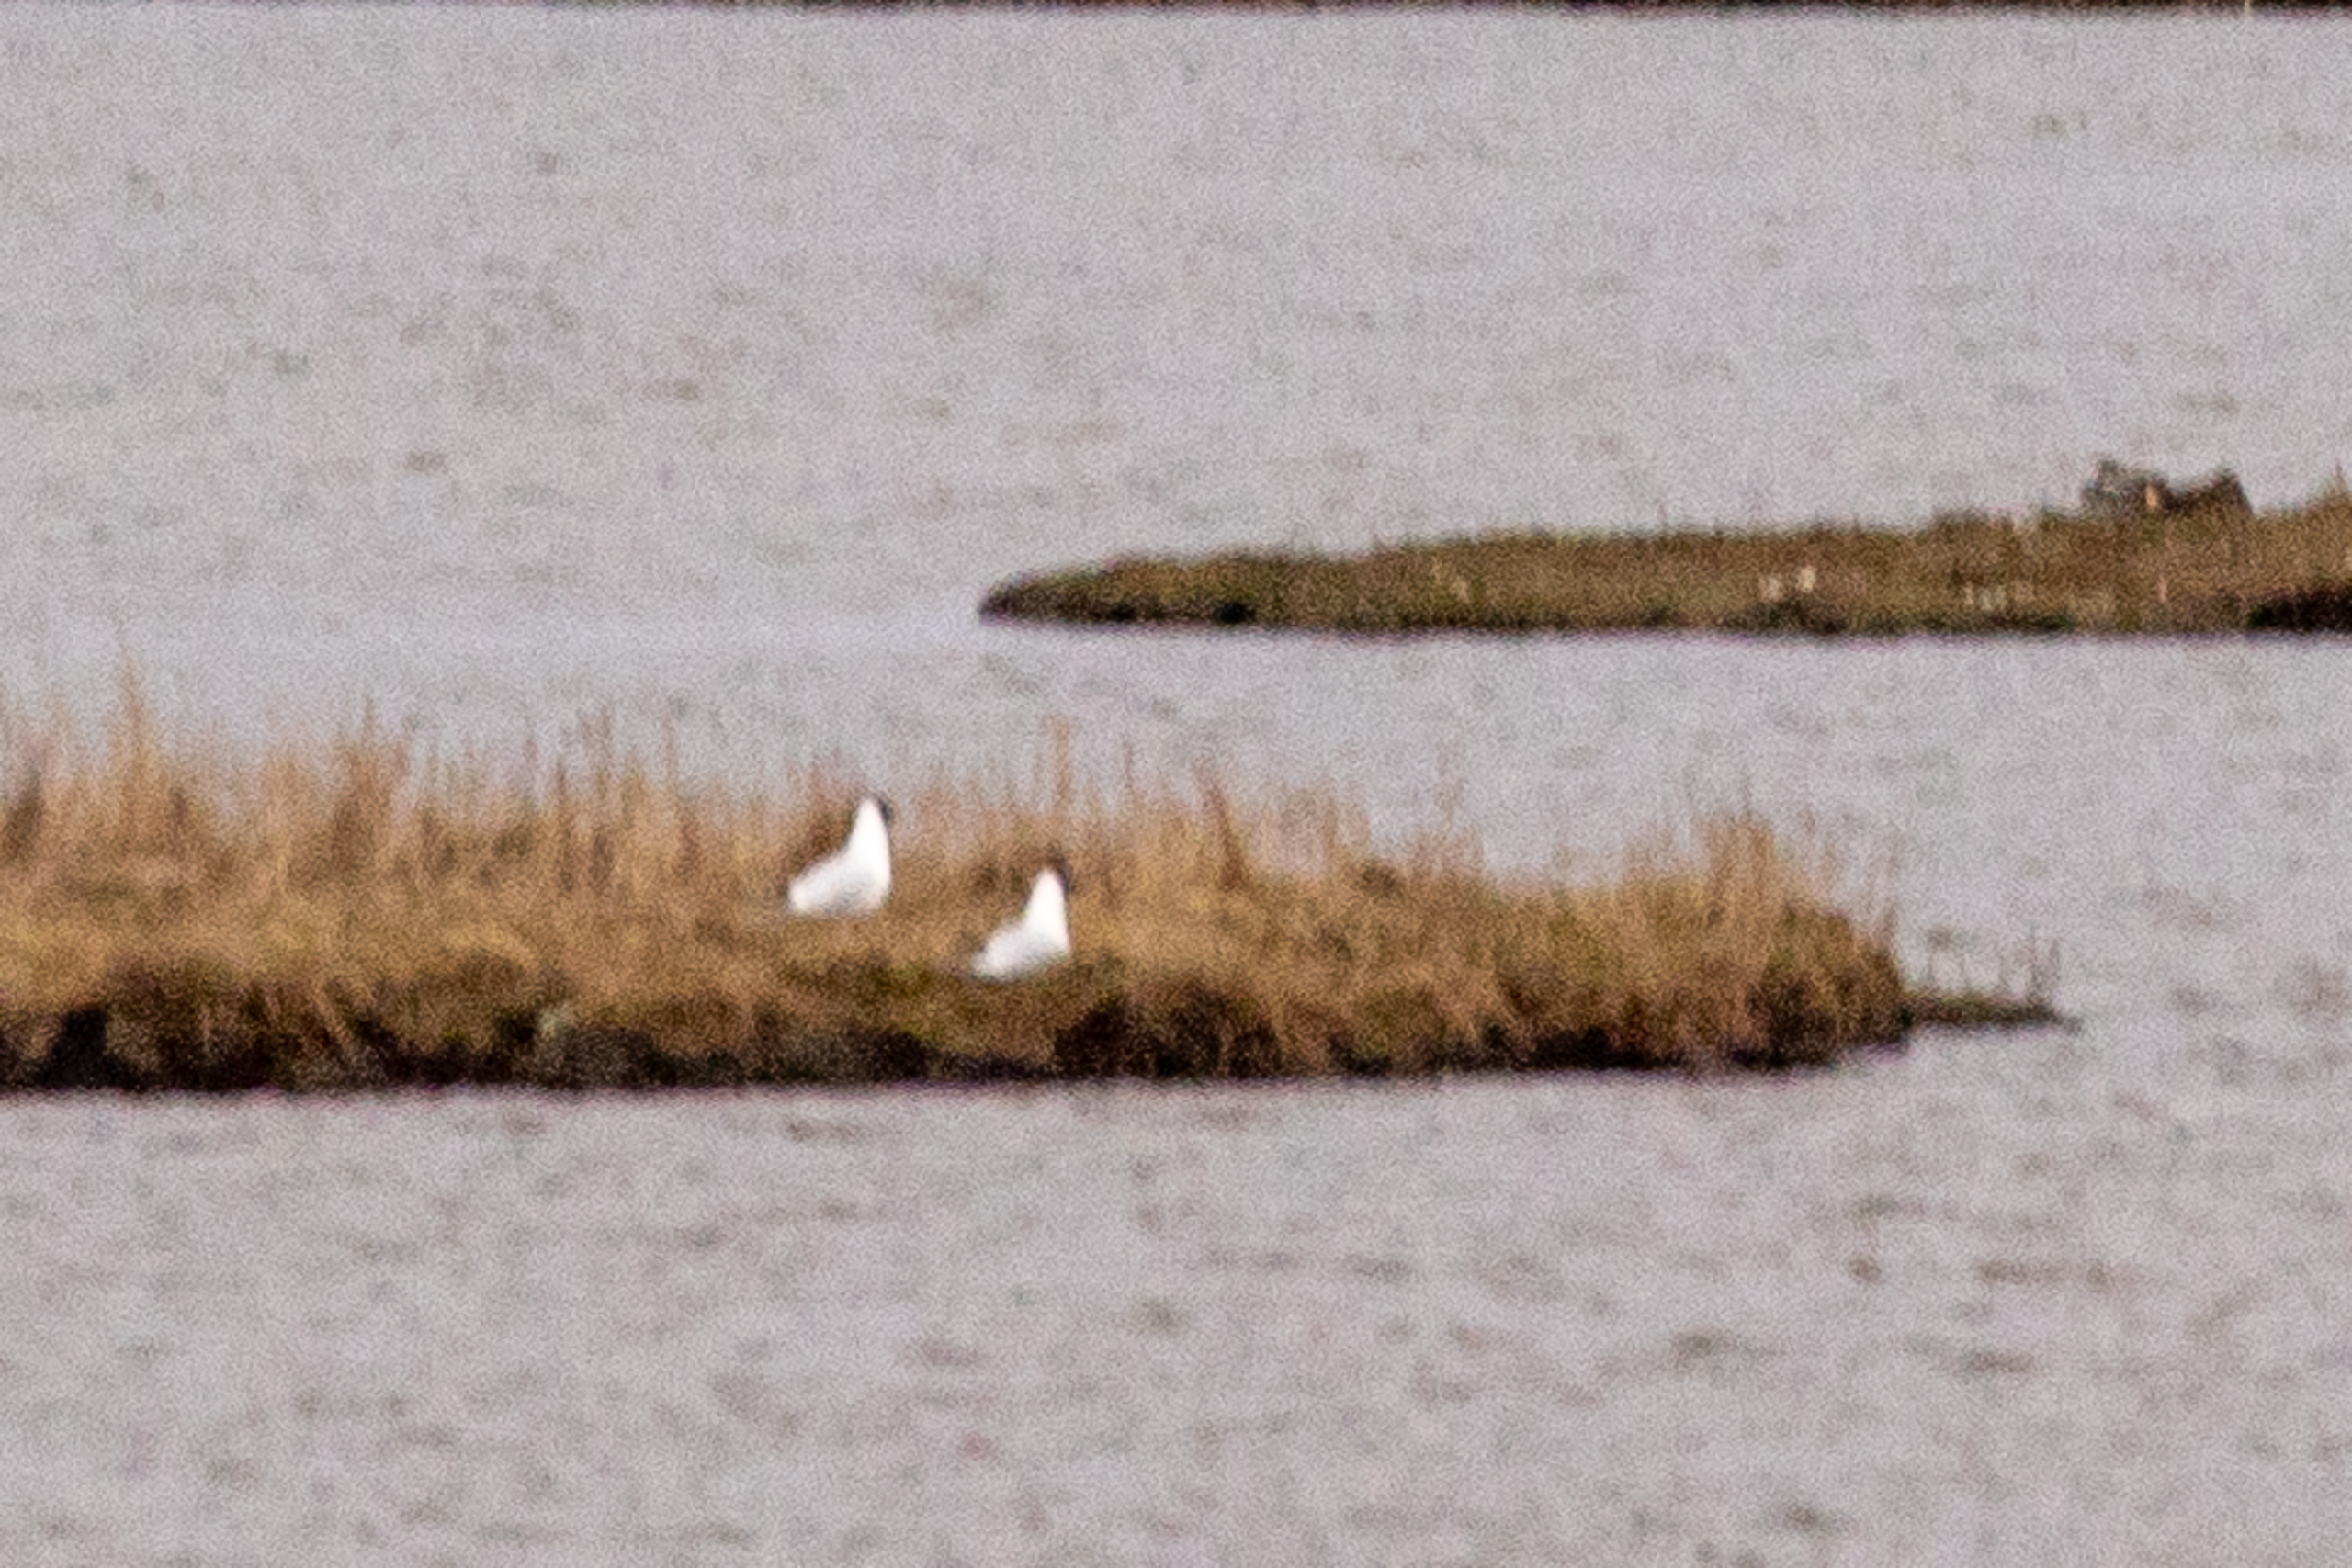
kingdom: Animalia
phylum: Chordata
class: Aves
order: Charadriiformes
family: Laridae
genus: Chroicocephalus
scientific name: Chroicocephalus ridibundus
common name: Hættemåge
